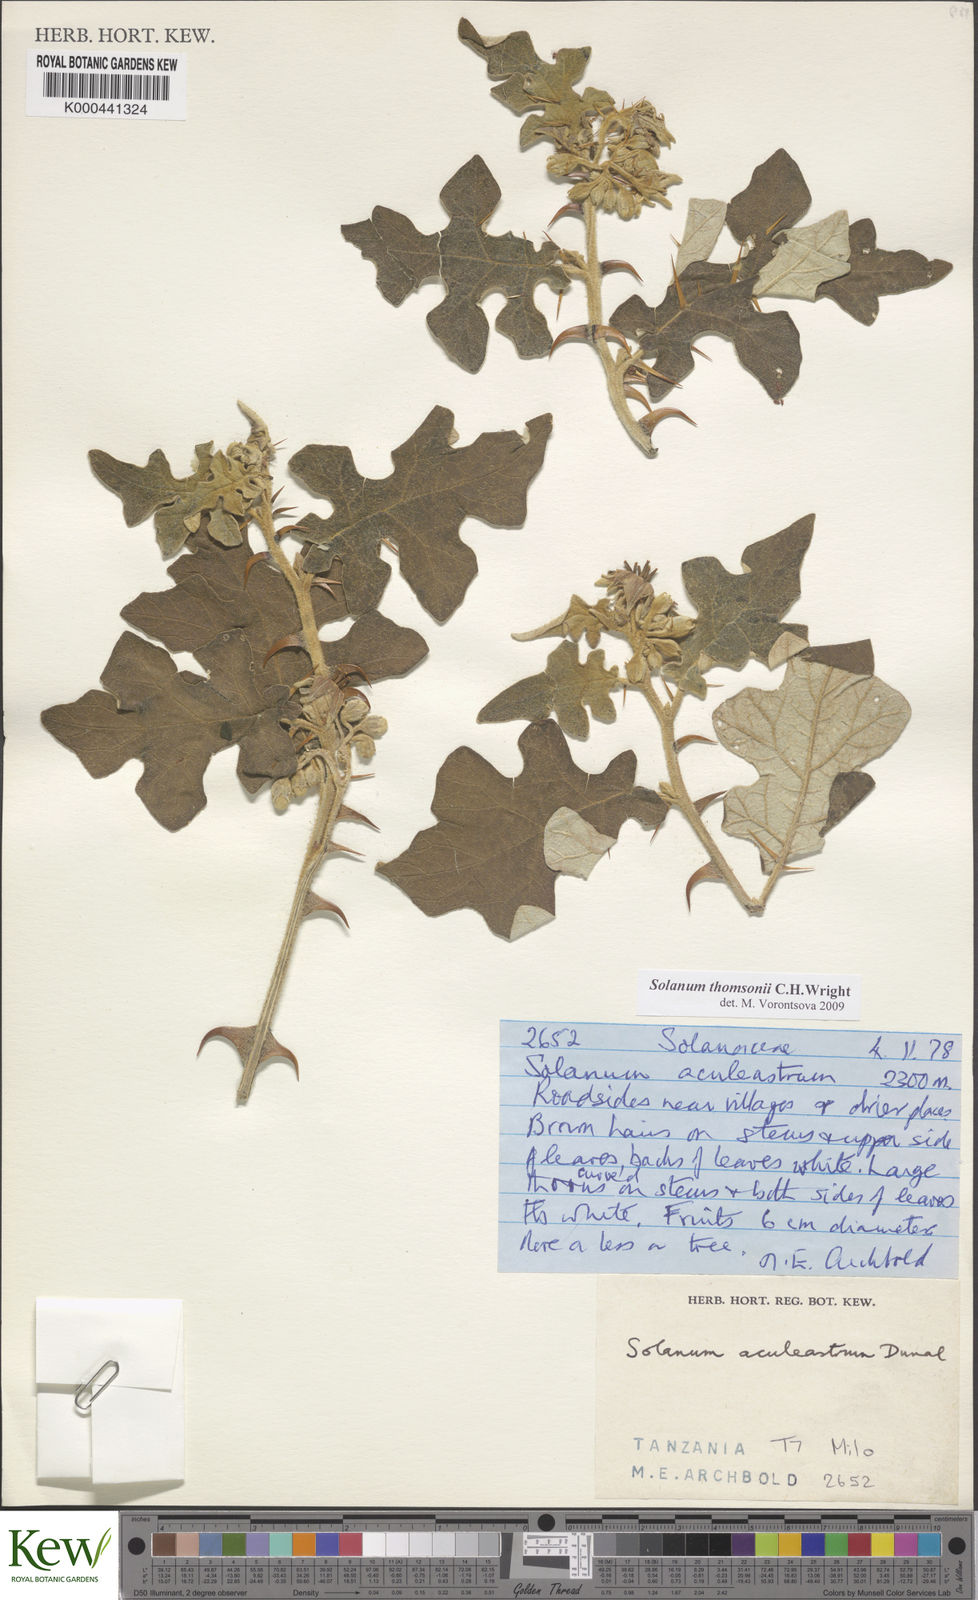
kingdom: Plantae
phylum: Tracheophyta
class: Magnoliopsida
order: Solanales
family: Solanaceae
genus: Solanum
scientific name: Solanum aculeastrum
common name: Goat bitter-apple
